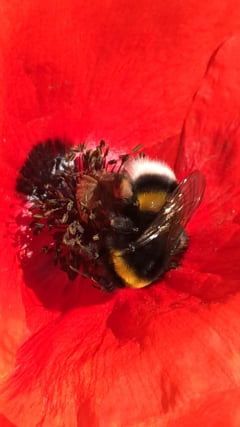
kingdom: Animalia
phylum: Arthropoda
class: Insecta
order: Hymenoptera
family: Apidae
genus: Bombus
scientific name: Bombus terrestris
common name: Buff-tailed bumblebee
